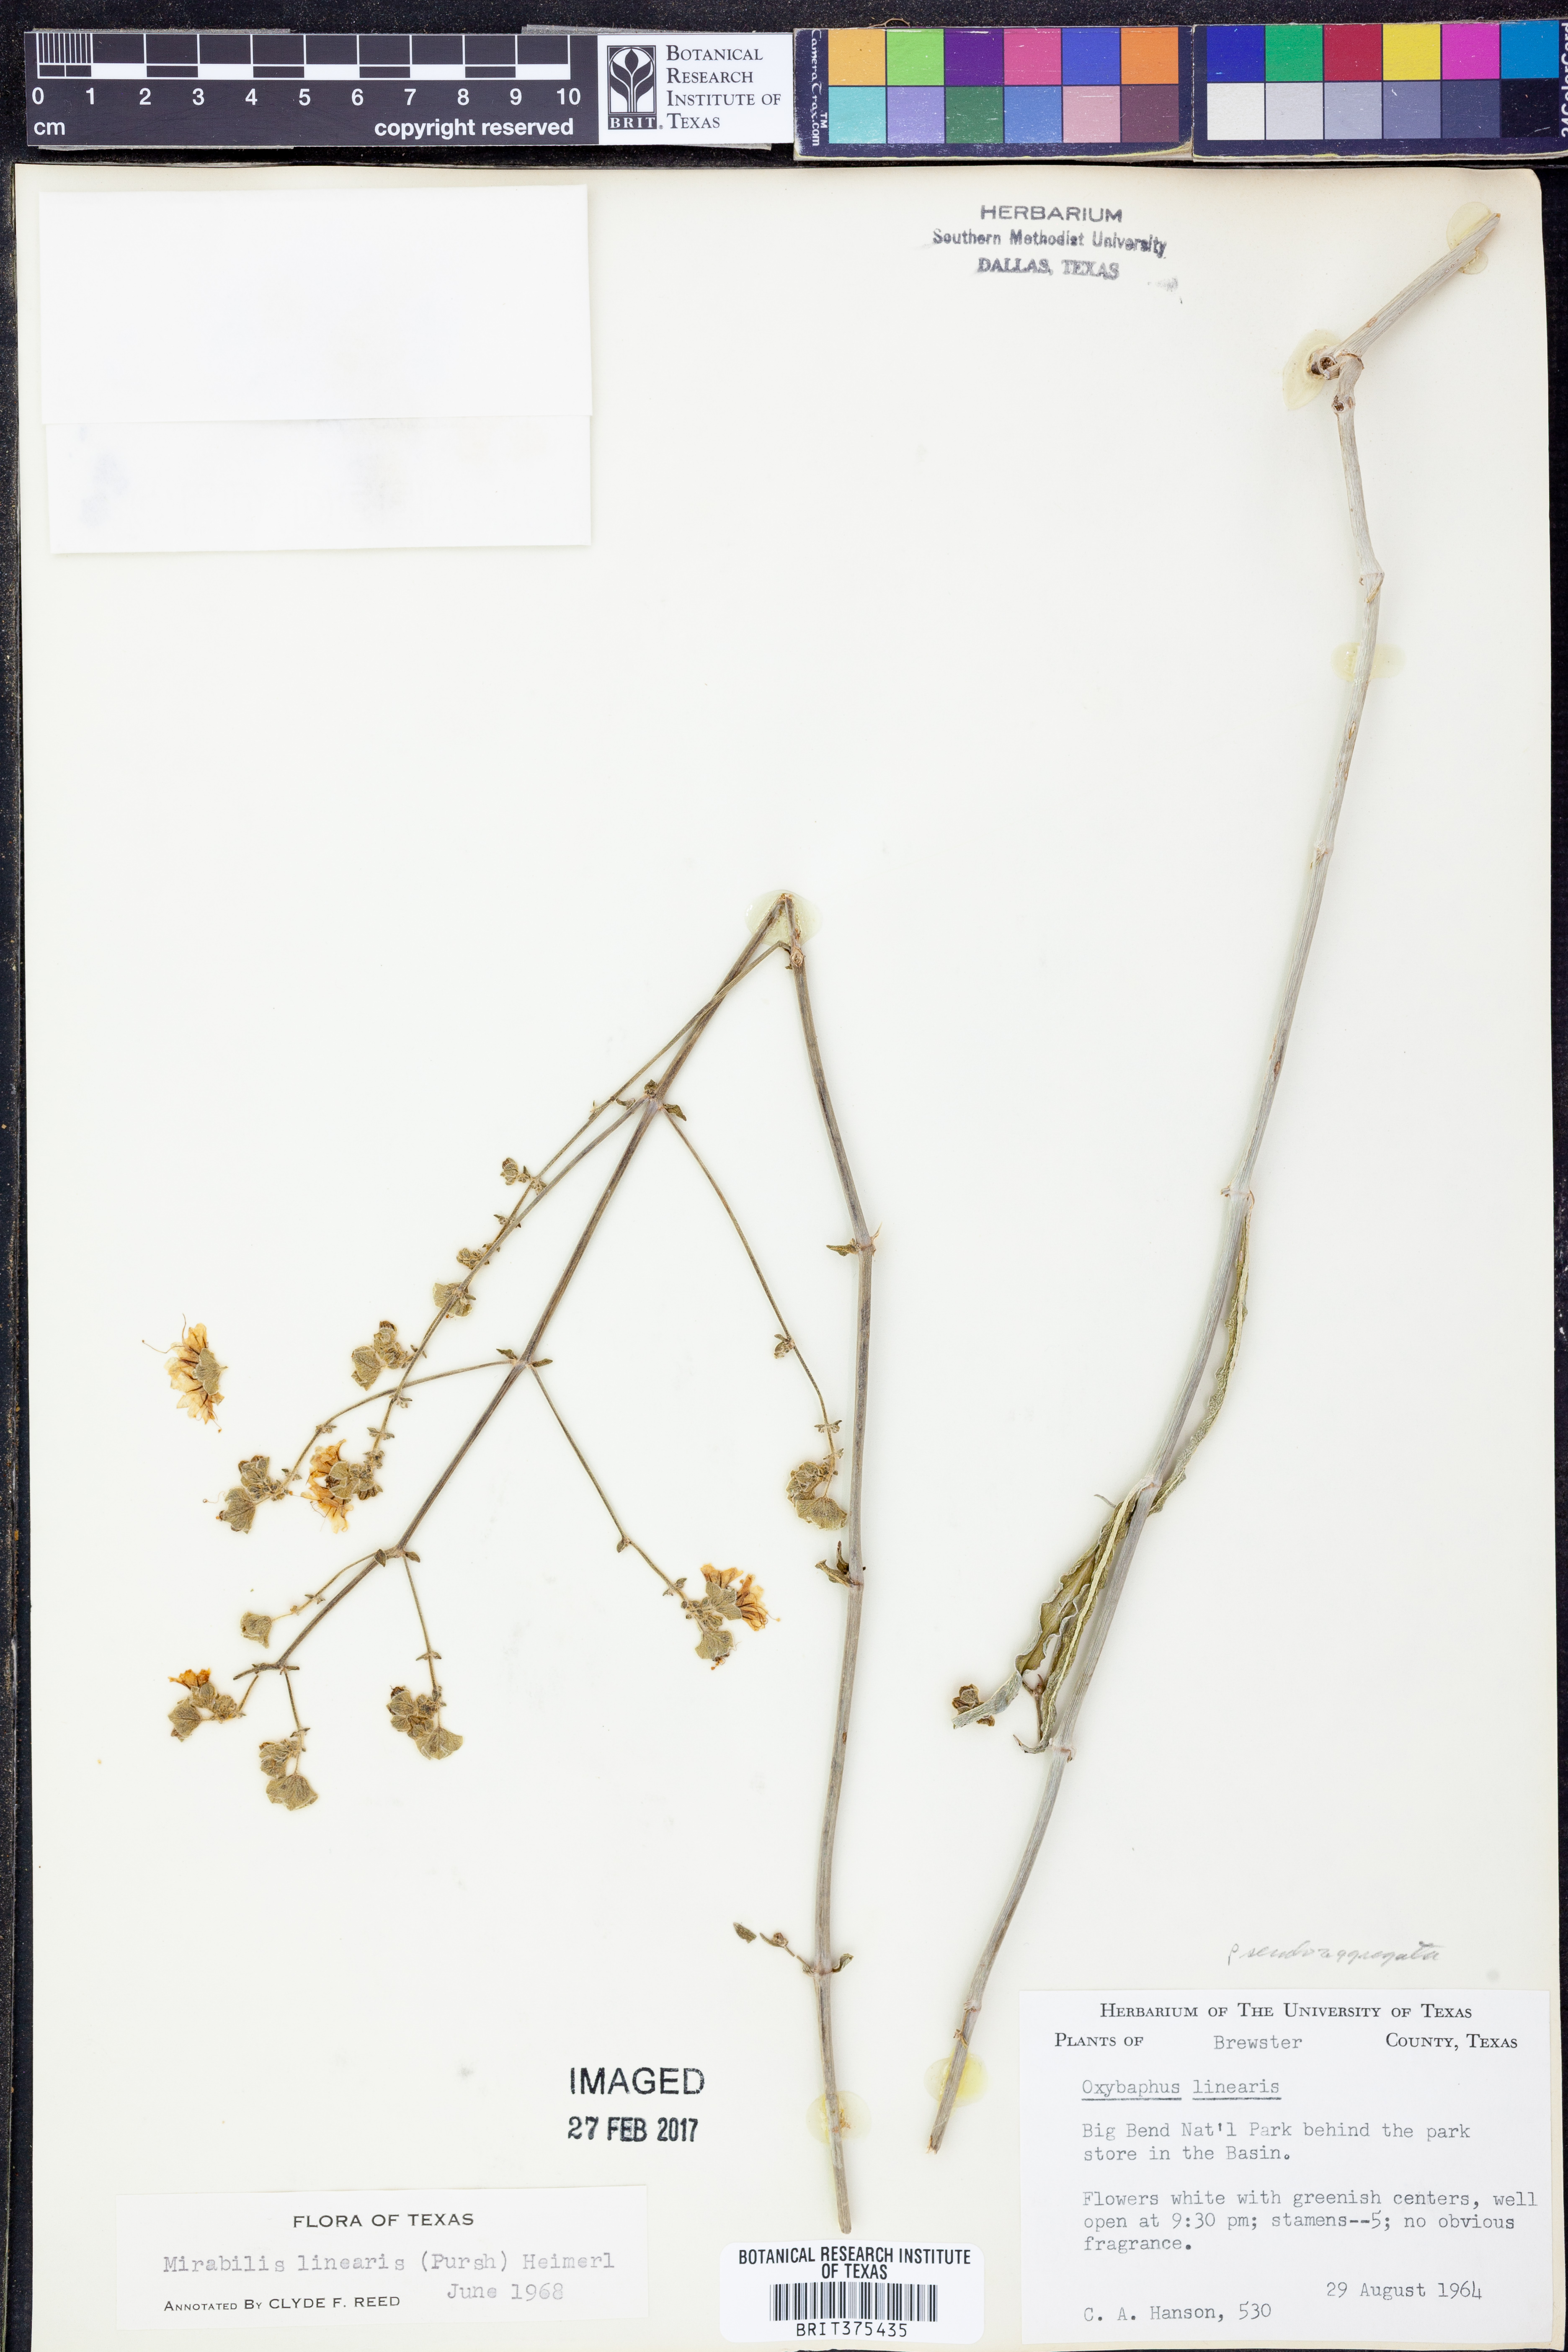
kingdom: Plantae
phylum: Tracheophyta
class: Magnoliopsida
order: Caryophyllales
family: Nyctaginaceae
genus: Mirabilis
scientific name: Mirabilis albida
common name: Hairy four-o'clock
